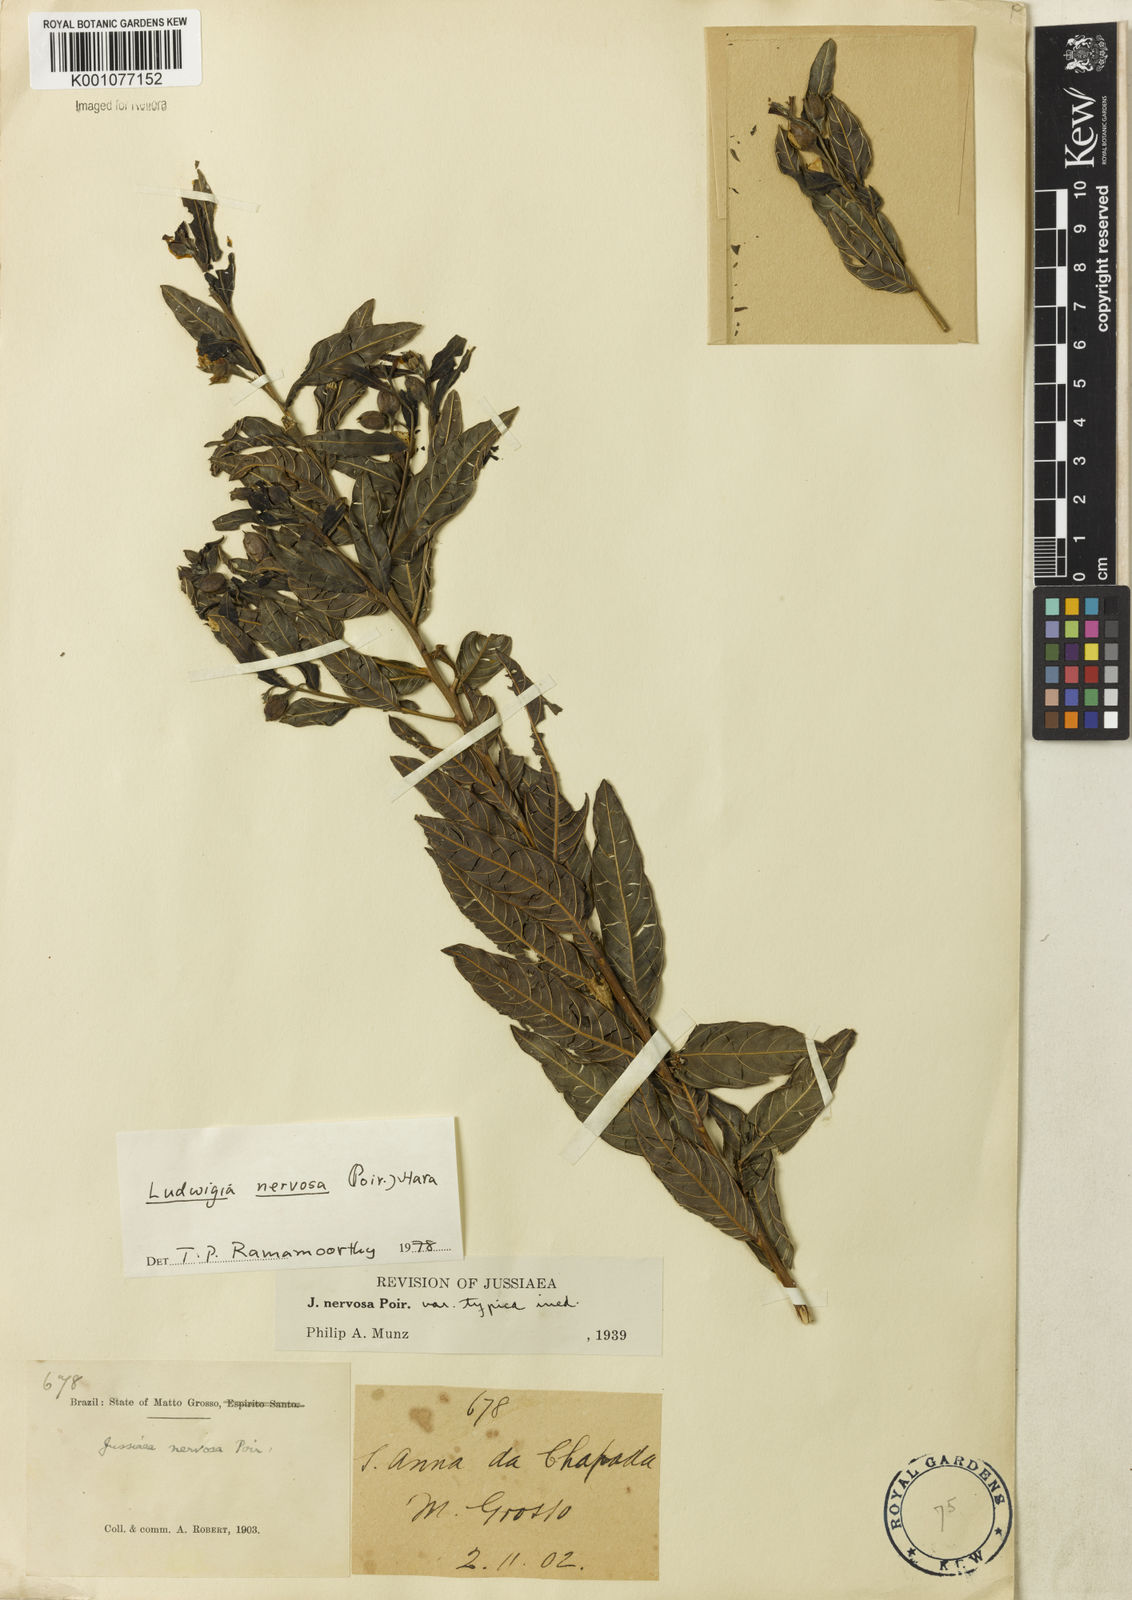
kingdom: Plantae
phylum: Tracheophyta
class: Magnoliopsida
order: Myrtales
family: Onagraceae
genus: Ludwigia
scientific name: Ludwigia nervosa
